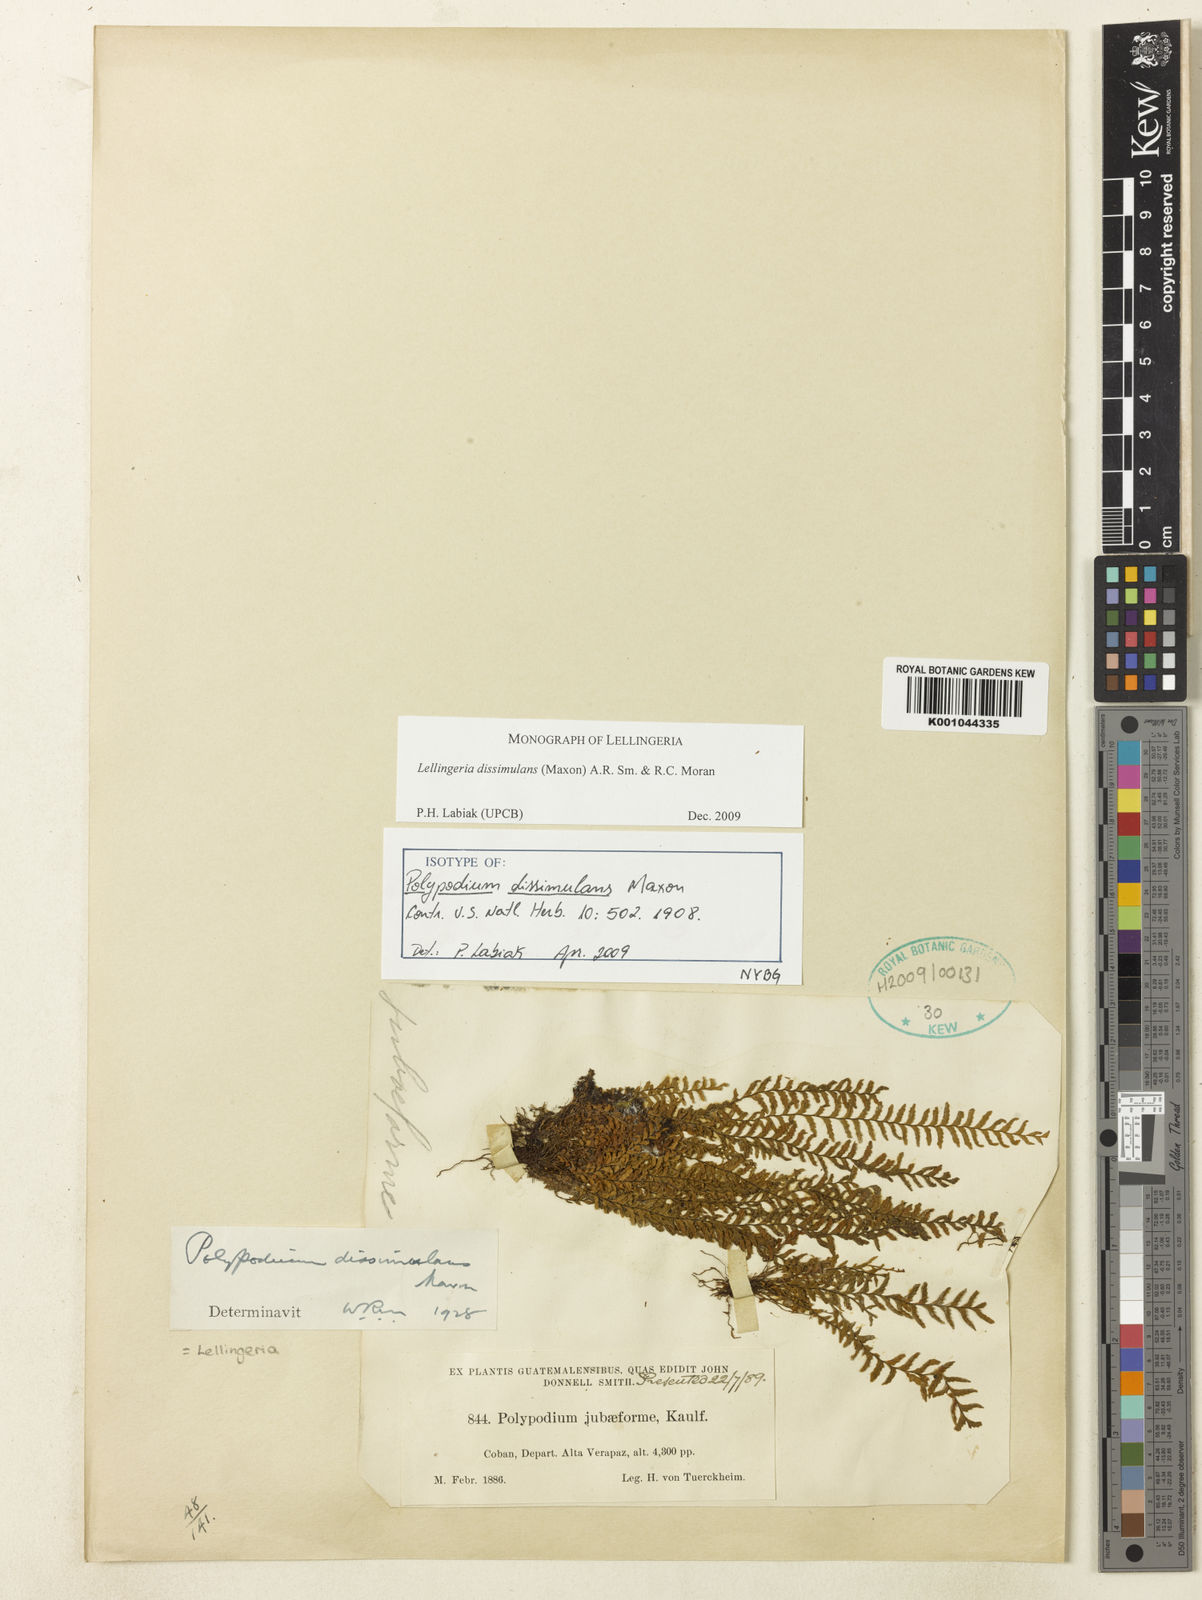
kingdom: Plantae
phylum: Tracheophyta
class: Polypodiopsida
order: Polypodiales
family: Polypodiaceae
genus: Lellingeria
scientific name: Lellingeria dissimulans
